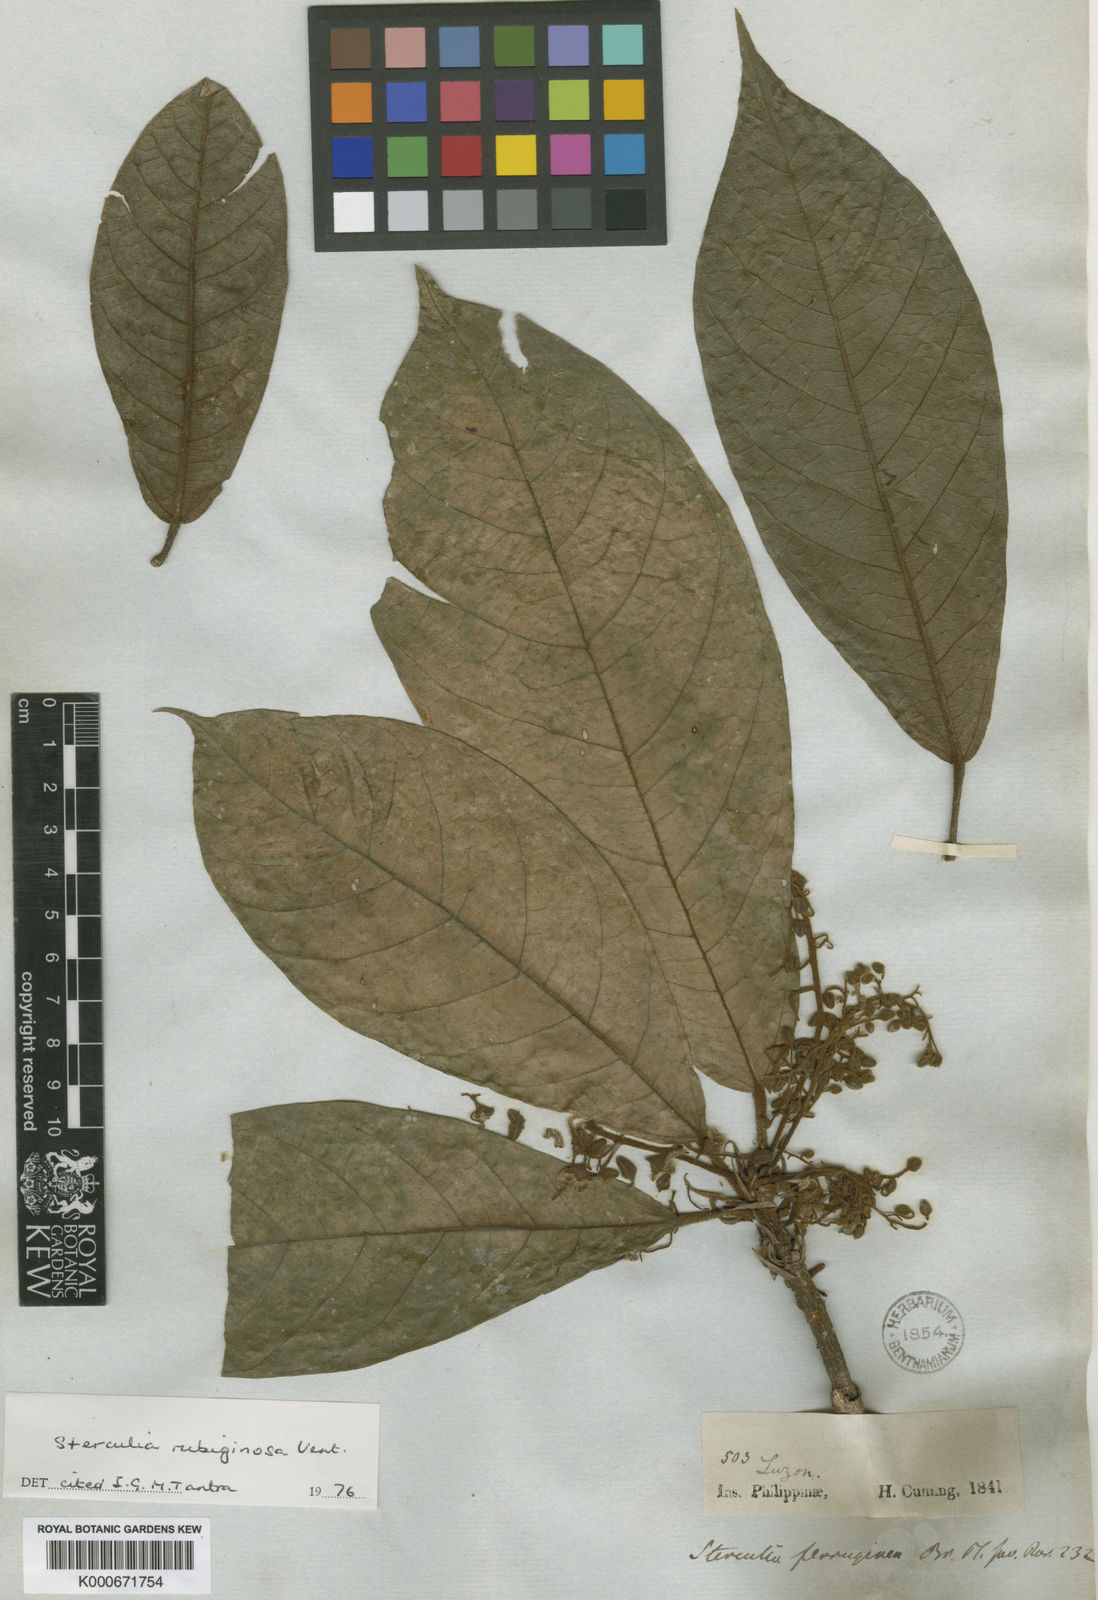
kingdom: Plantae
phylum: Tracheophyta
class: Magnoliopsida
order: Malvales
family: Malvaceae
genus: Sterculia
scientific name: Sterculia rubiginosa
